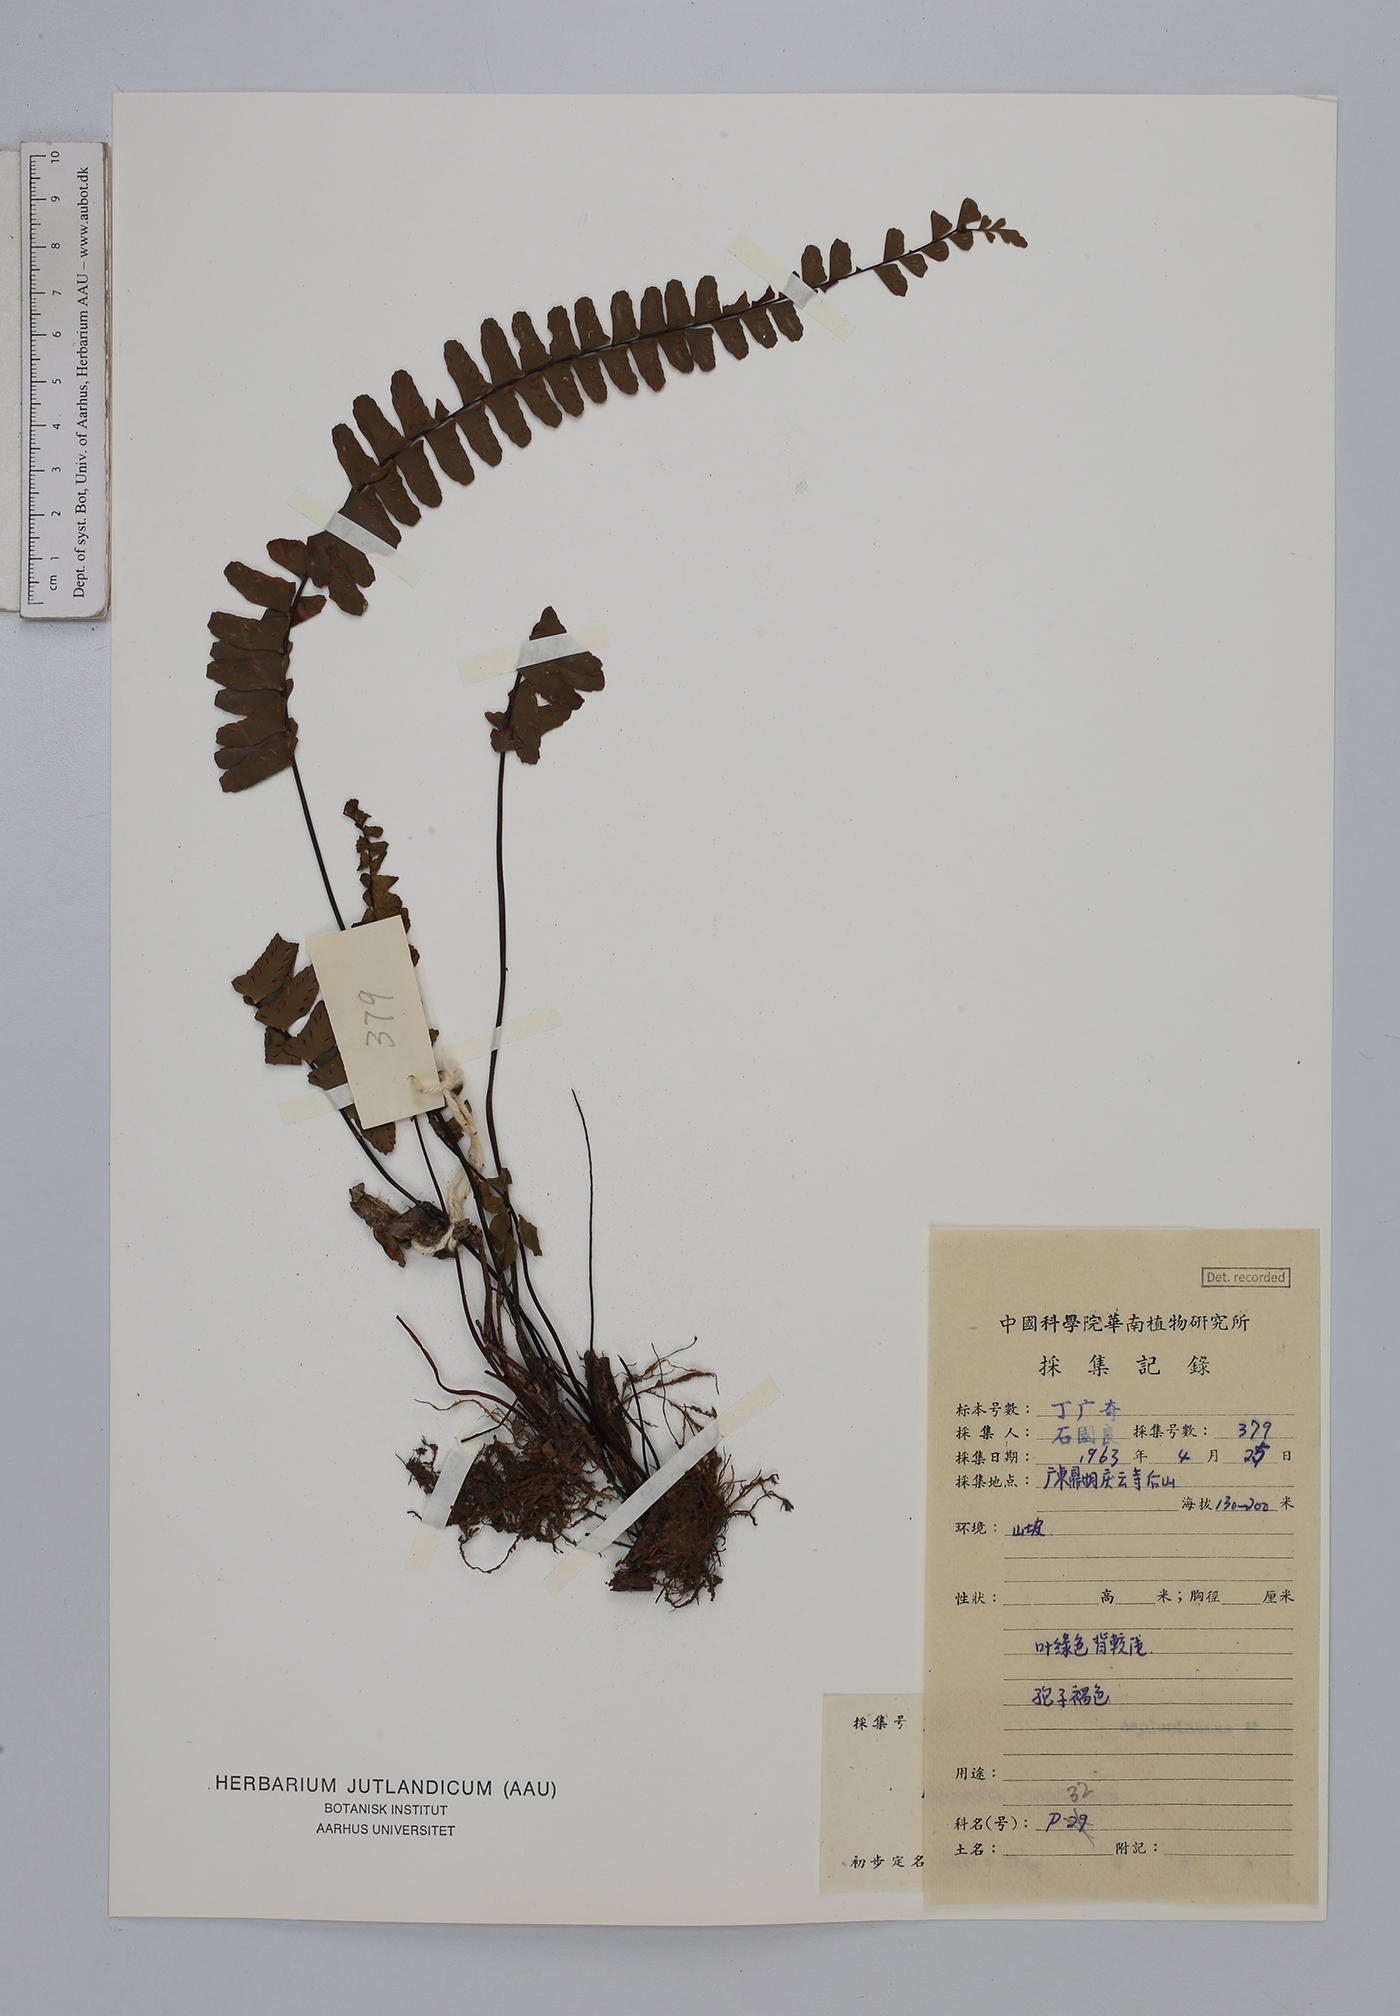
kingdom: Plantae
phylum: Tracheophyta
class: Polypodiopsida
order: Polypodiales
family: Aspleniaceae
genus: Asplenium
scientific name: Asplenium normale
